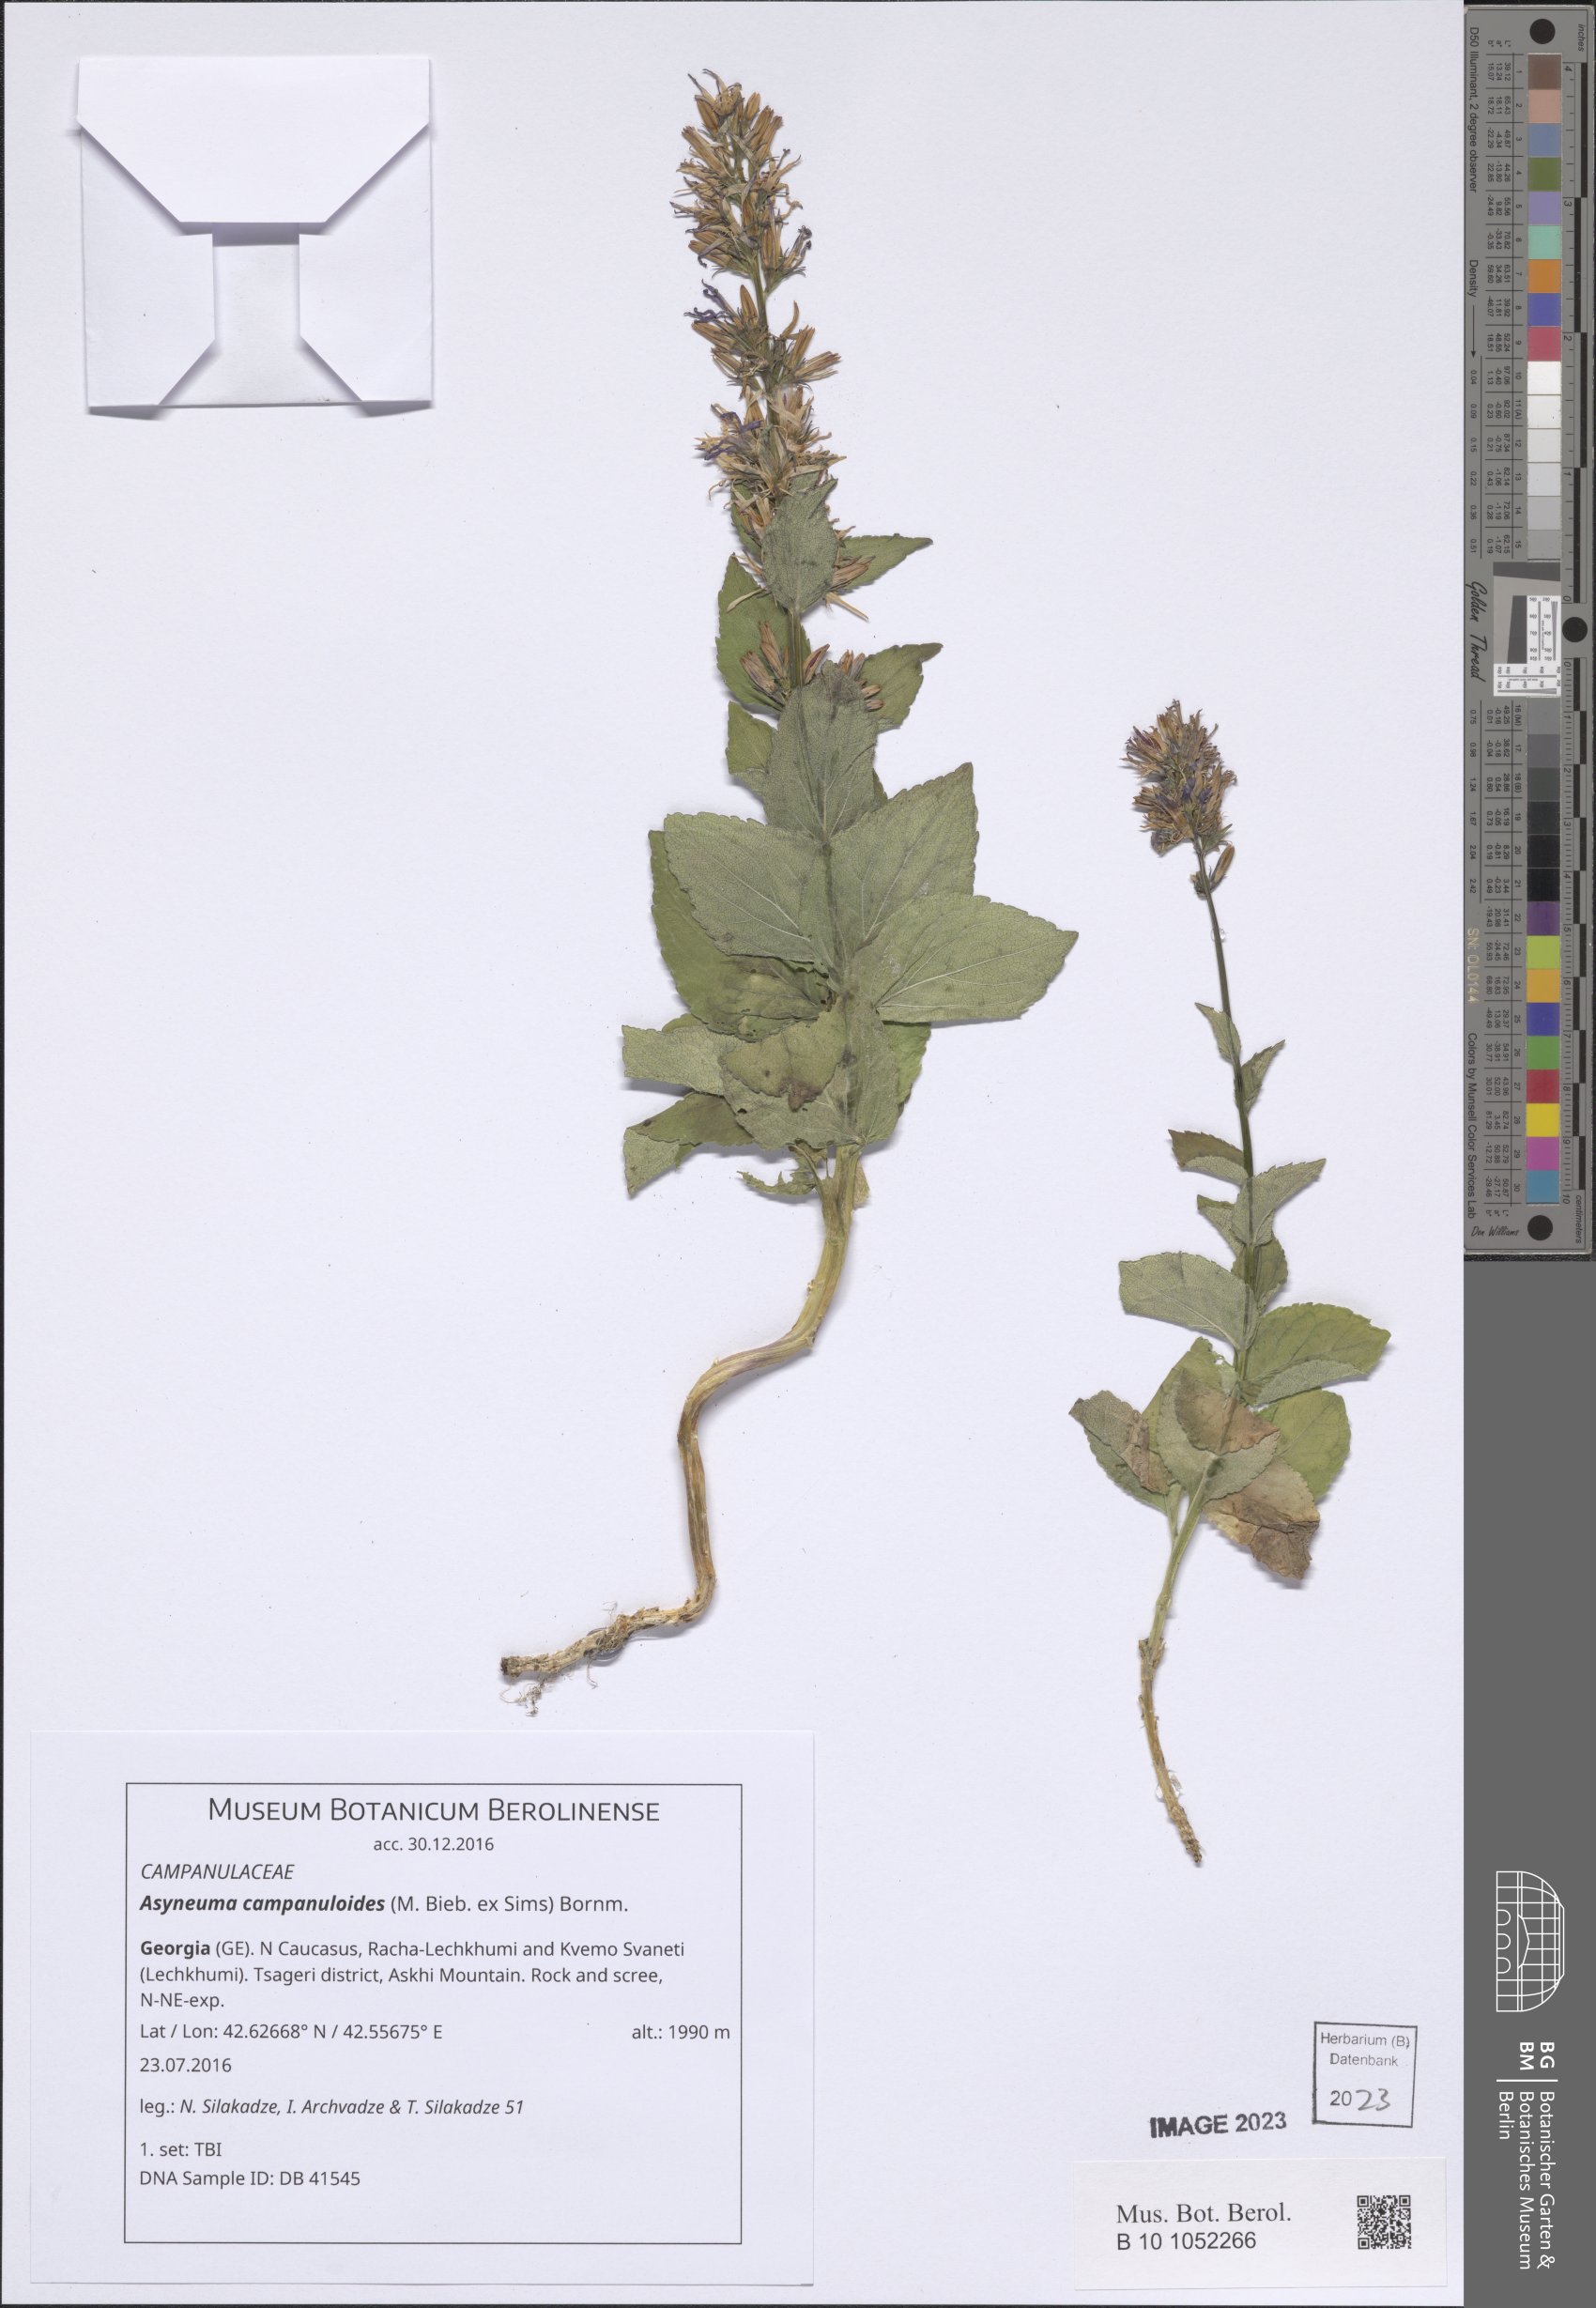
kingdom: Plantae
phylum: Tracheophyta
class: Magnoliopsida
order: Asterales
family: Campanulaceae
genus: Asyneuma
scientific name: Asyneuma campanuloides
